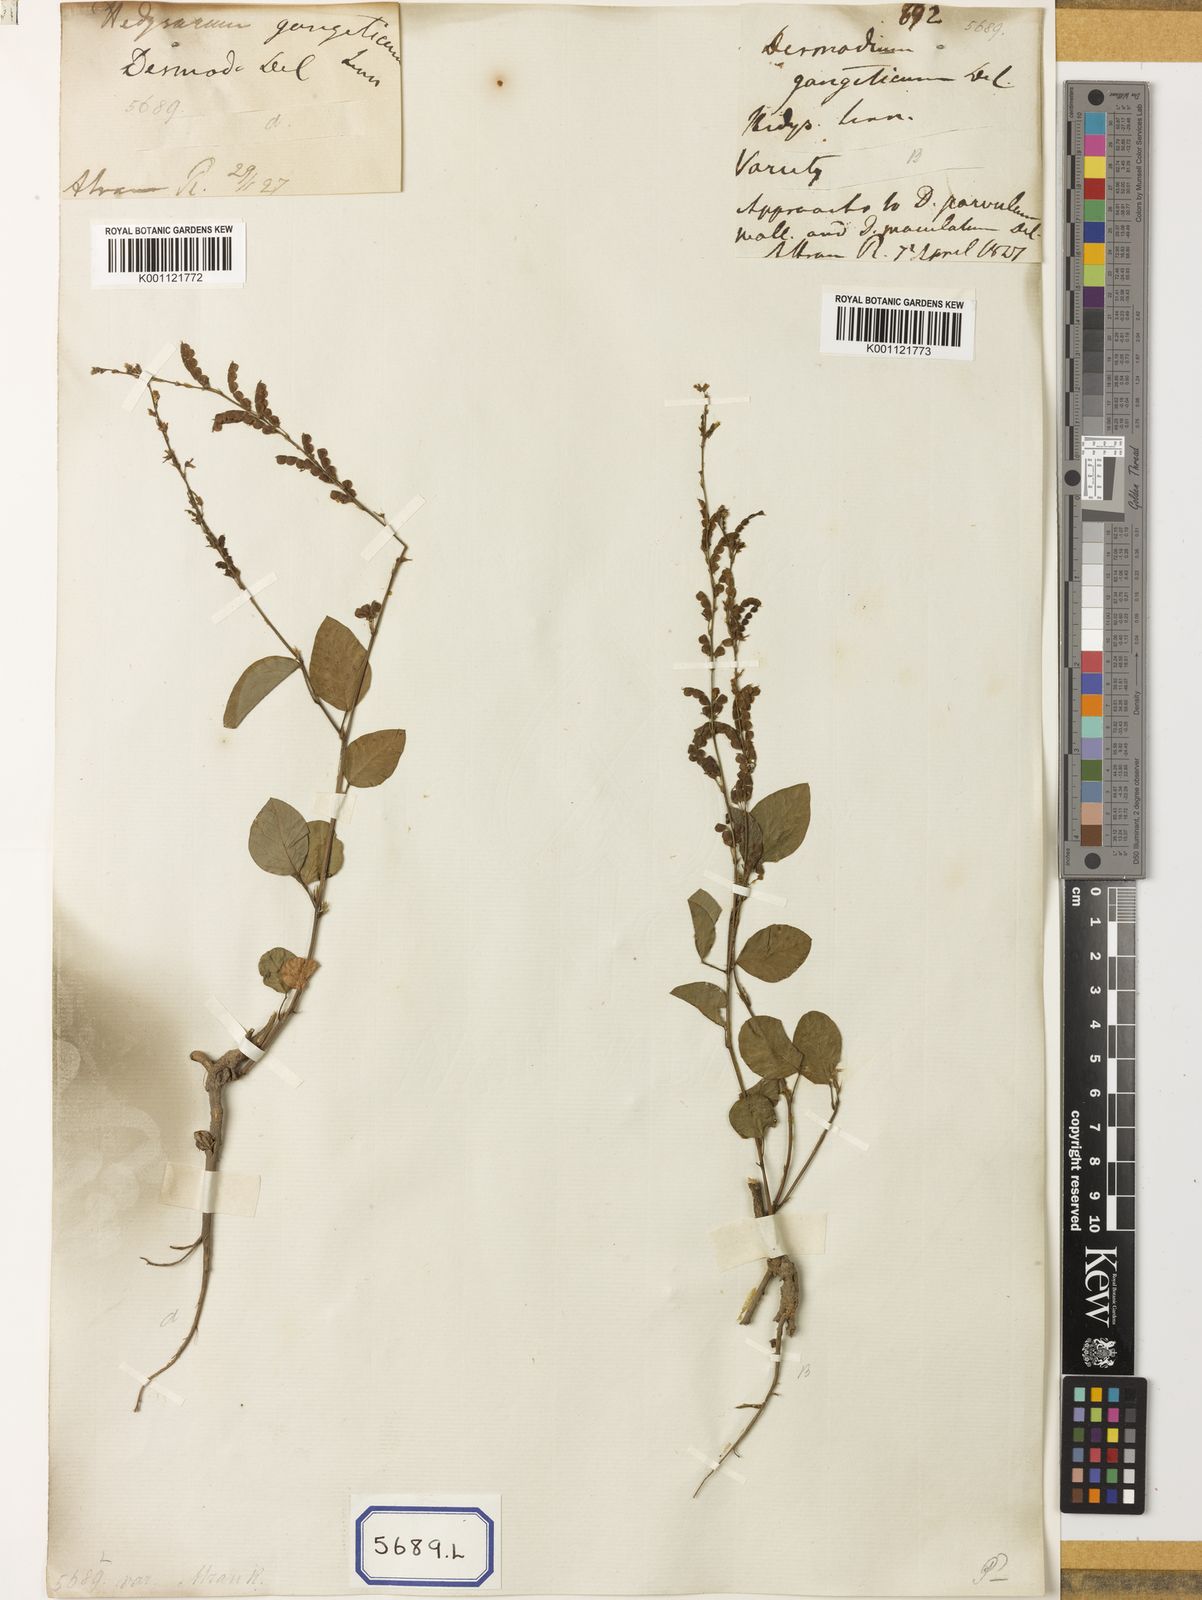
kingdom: Plantae
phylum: Tracheophyta
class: Magnoliopsida
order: Fabales
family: Fabaceae
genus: Pleurolobus
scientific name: Pleurolobus gangeticus
